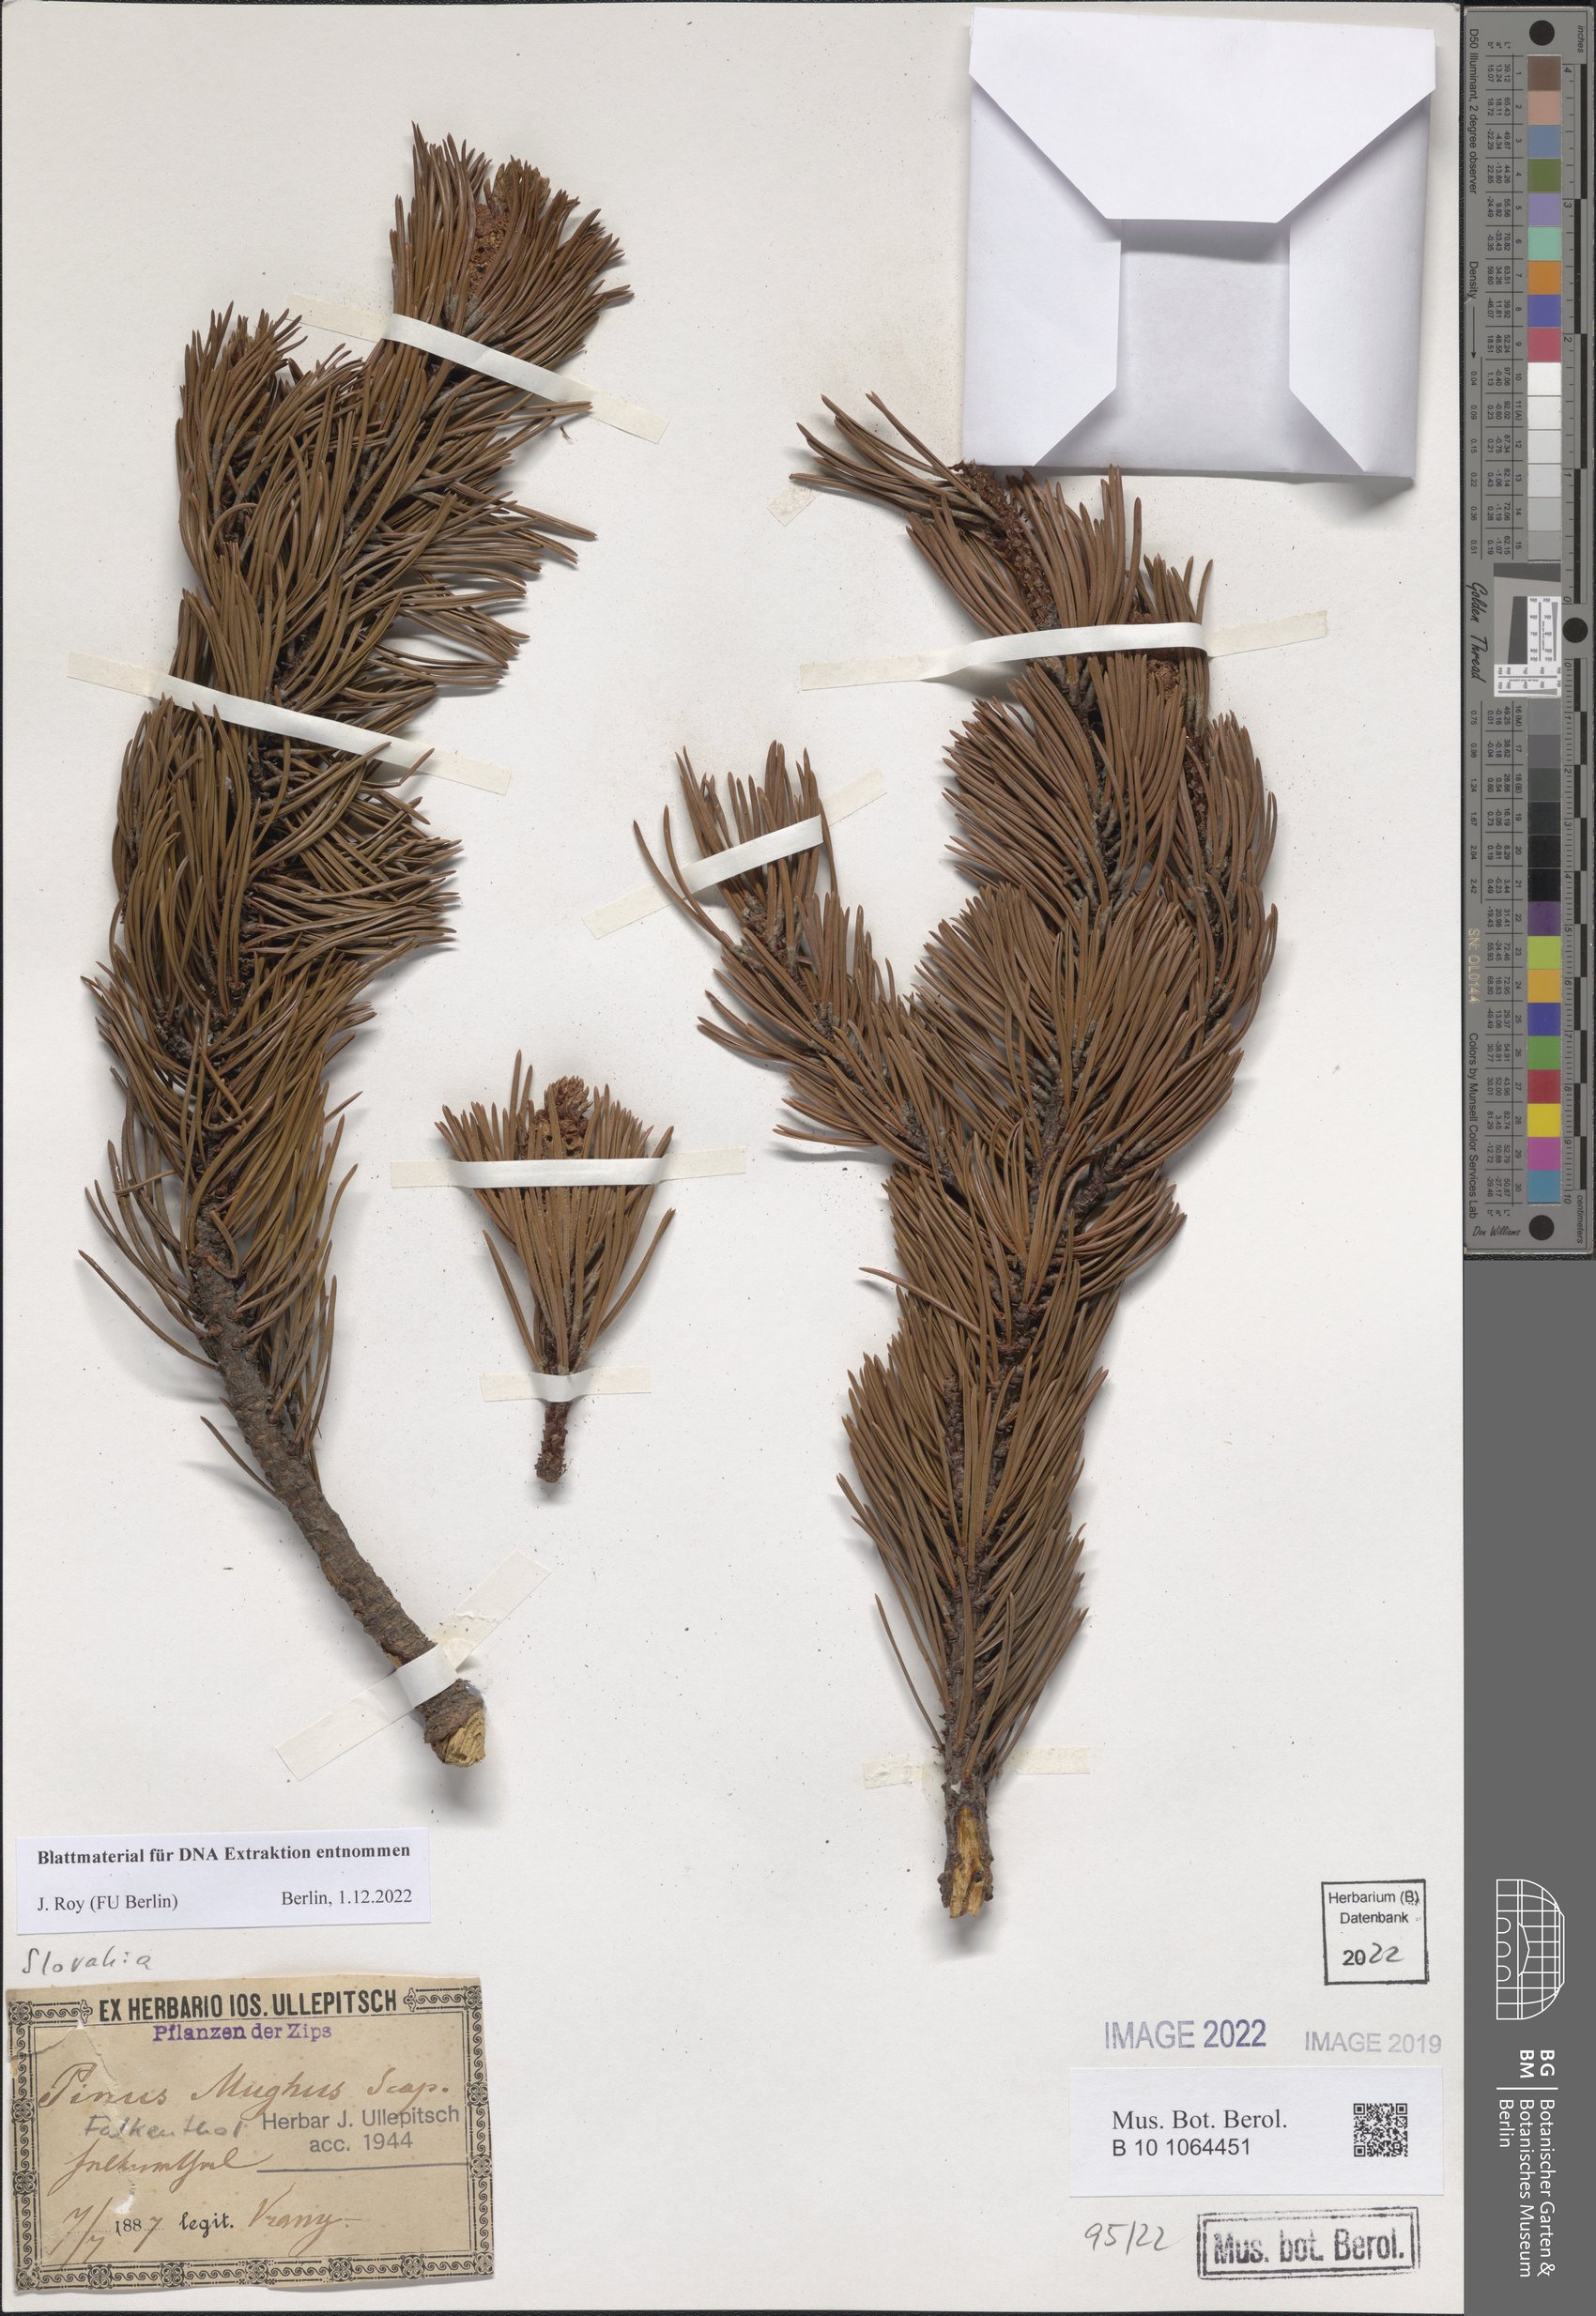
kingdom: Plantae
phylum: Tracheophyta
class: Pinopsida
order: Pinales
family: Pinaceae
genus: Pinus
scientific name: Pinus mugo
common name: Mugo pine
